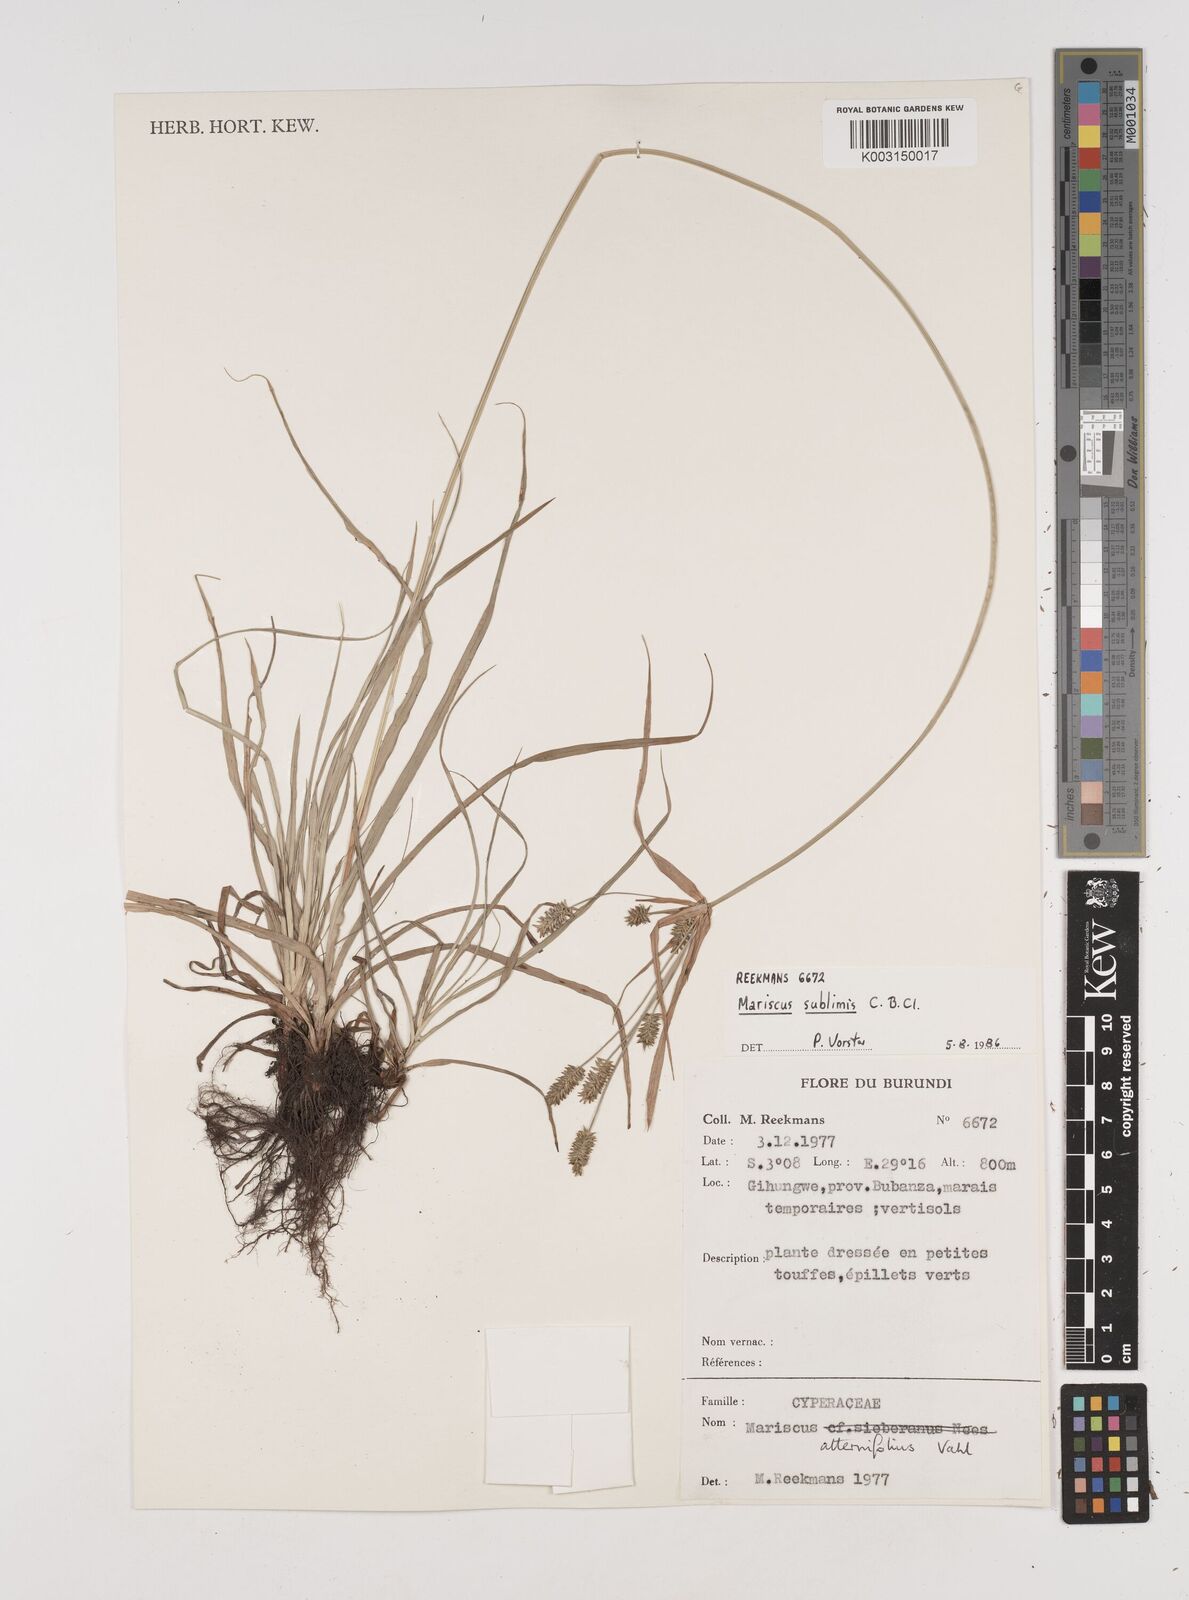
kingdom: Plantae
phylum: Tracheophyta
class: Liliopsida
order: Poales
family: Cyperaceae
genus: Cyperus
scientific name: Cyperus cyperoides
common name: Pacific island flat sedge
